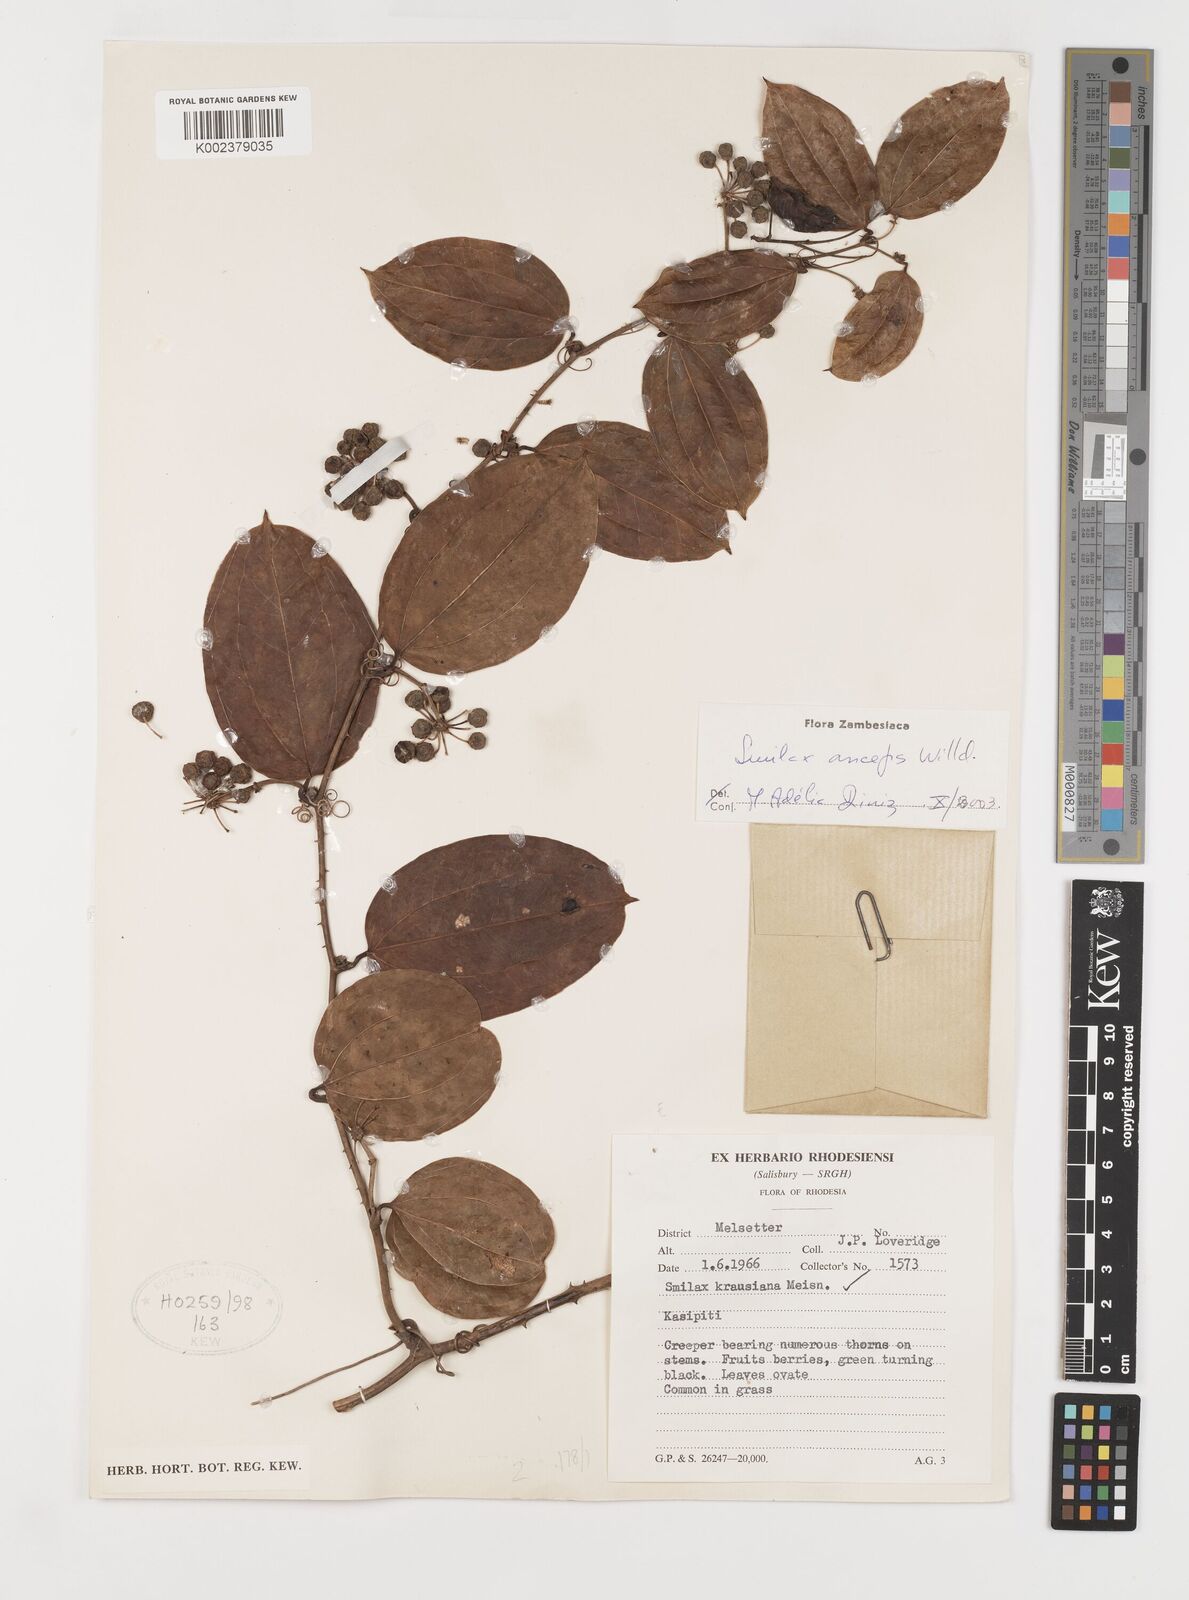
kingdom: Plantae
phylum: Tracheophyta
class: Liliopsida
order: Liliales
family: Smilacaceae
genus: Smilax
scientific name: Smilax anceps
